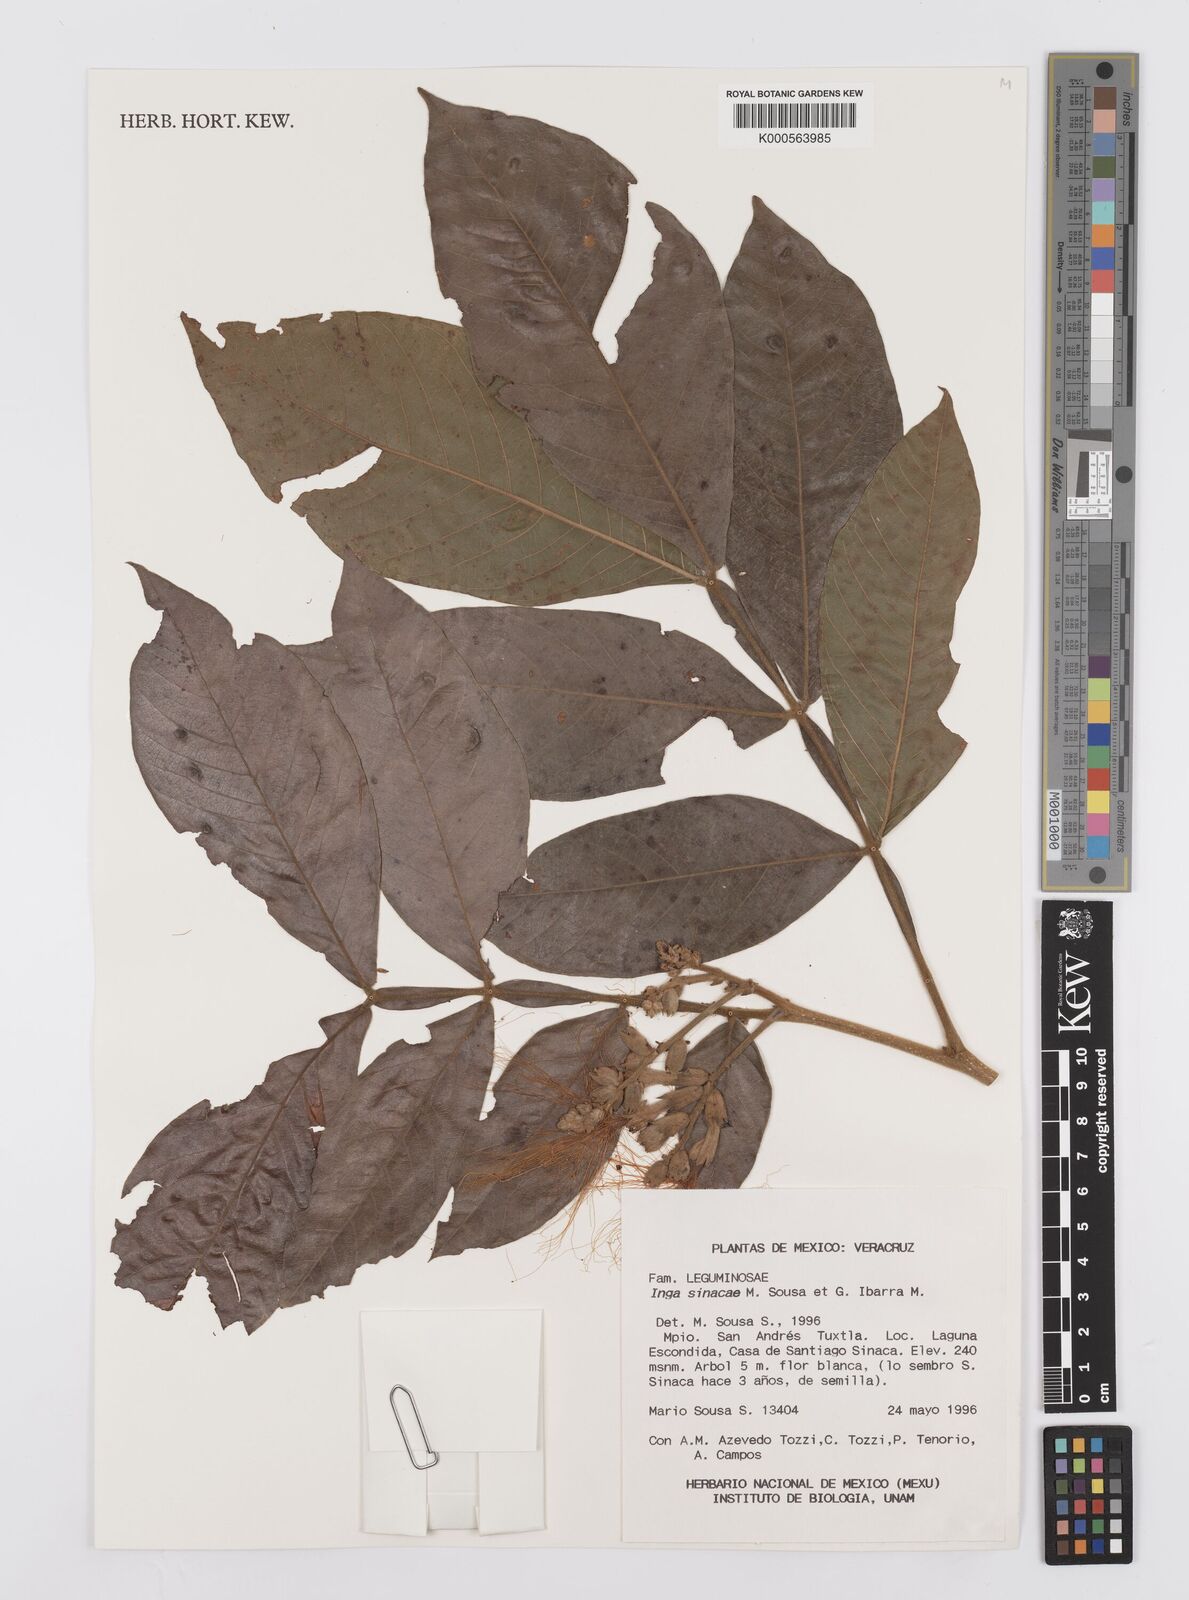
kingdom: Plantae
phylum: Tracheophyta
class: Magnoliopsida
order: Fabales
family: Fabaceae
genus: Inga
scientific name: Inga sinacae
